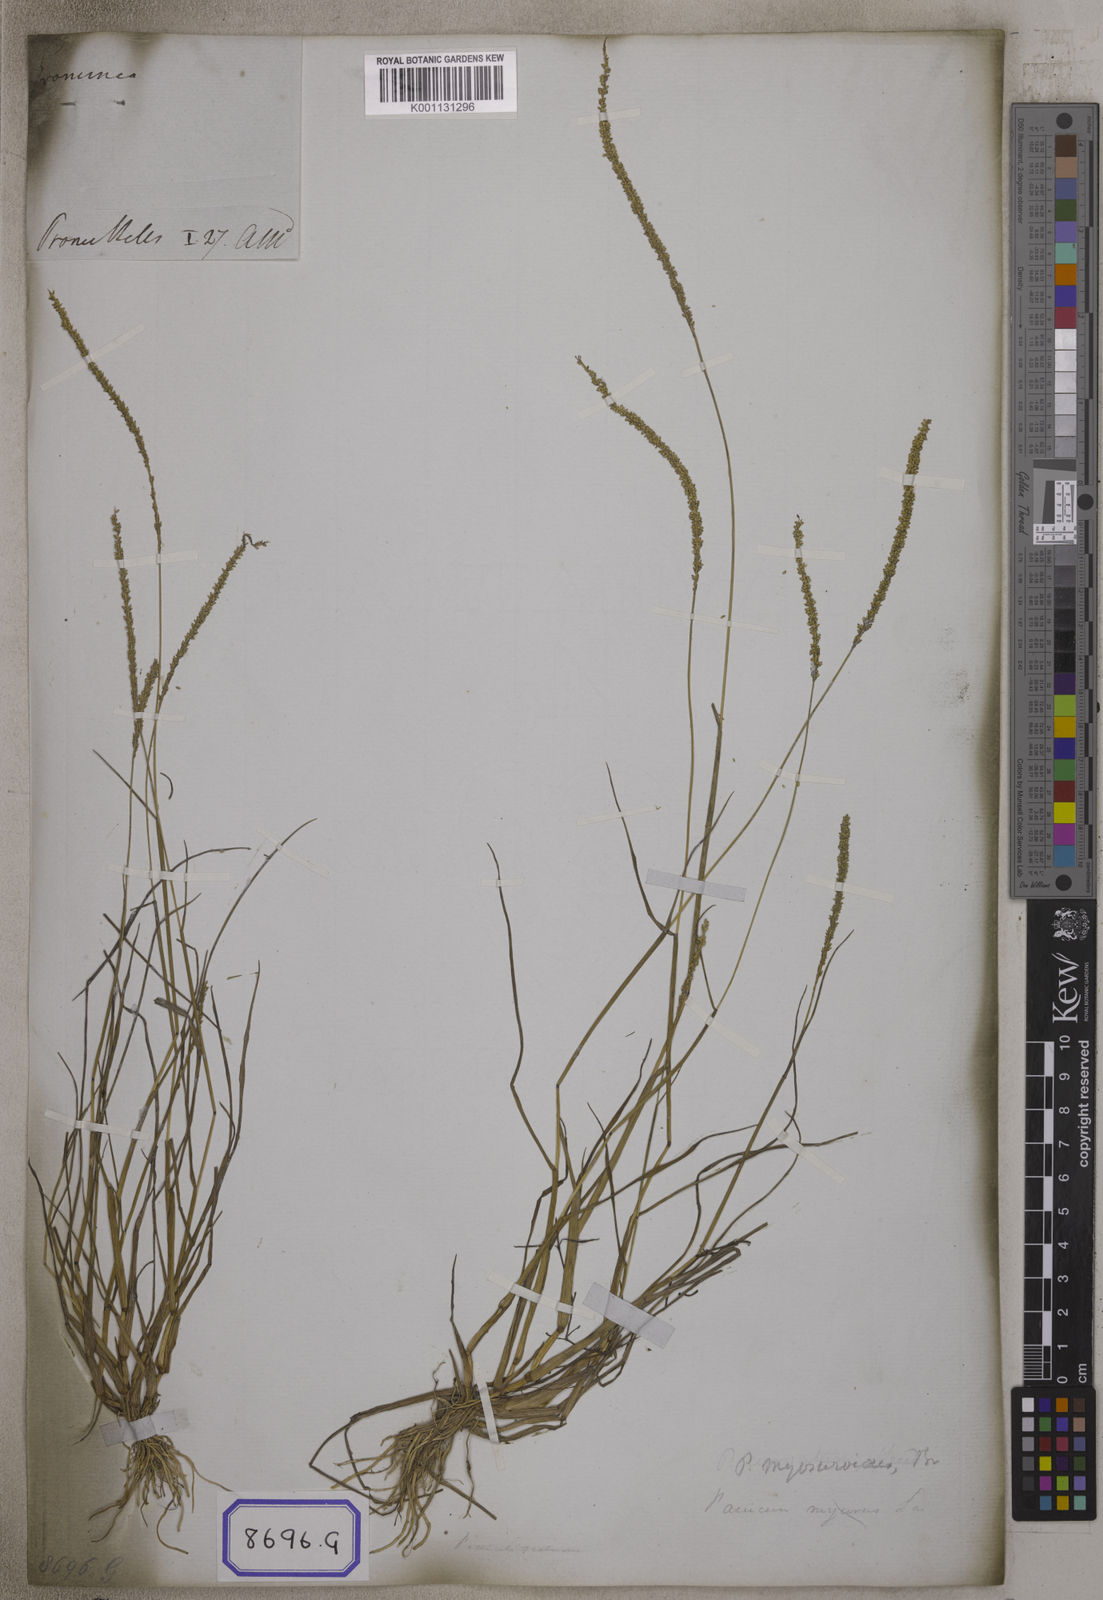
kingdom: Plantae
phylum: Tracheophyta
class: Liliopsida
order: Poales
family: Poaceae
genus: Panicum
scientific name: Panicum
